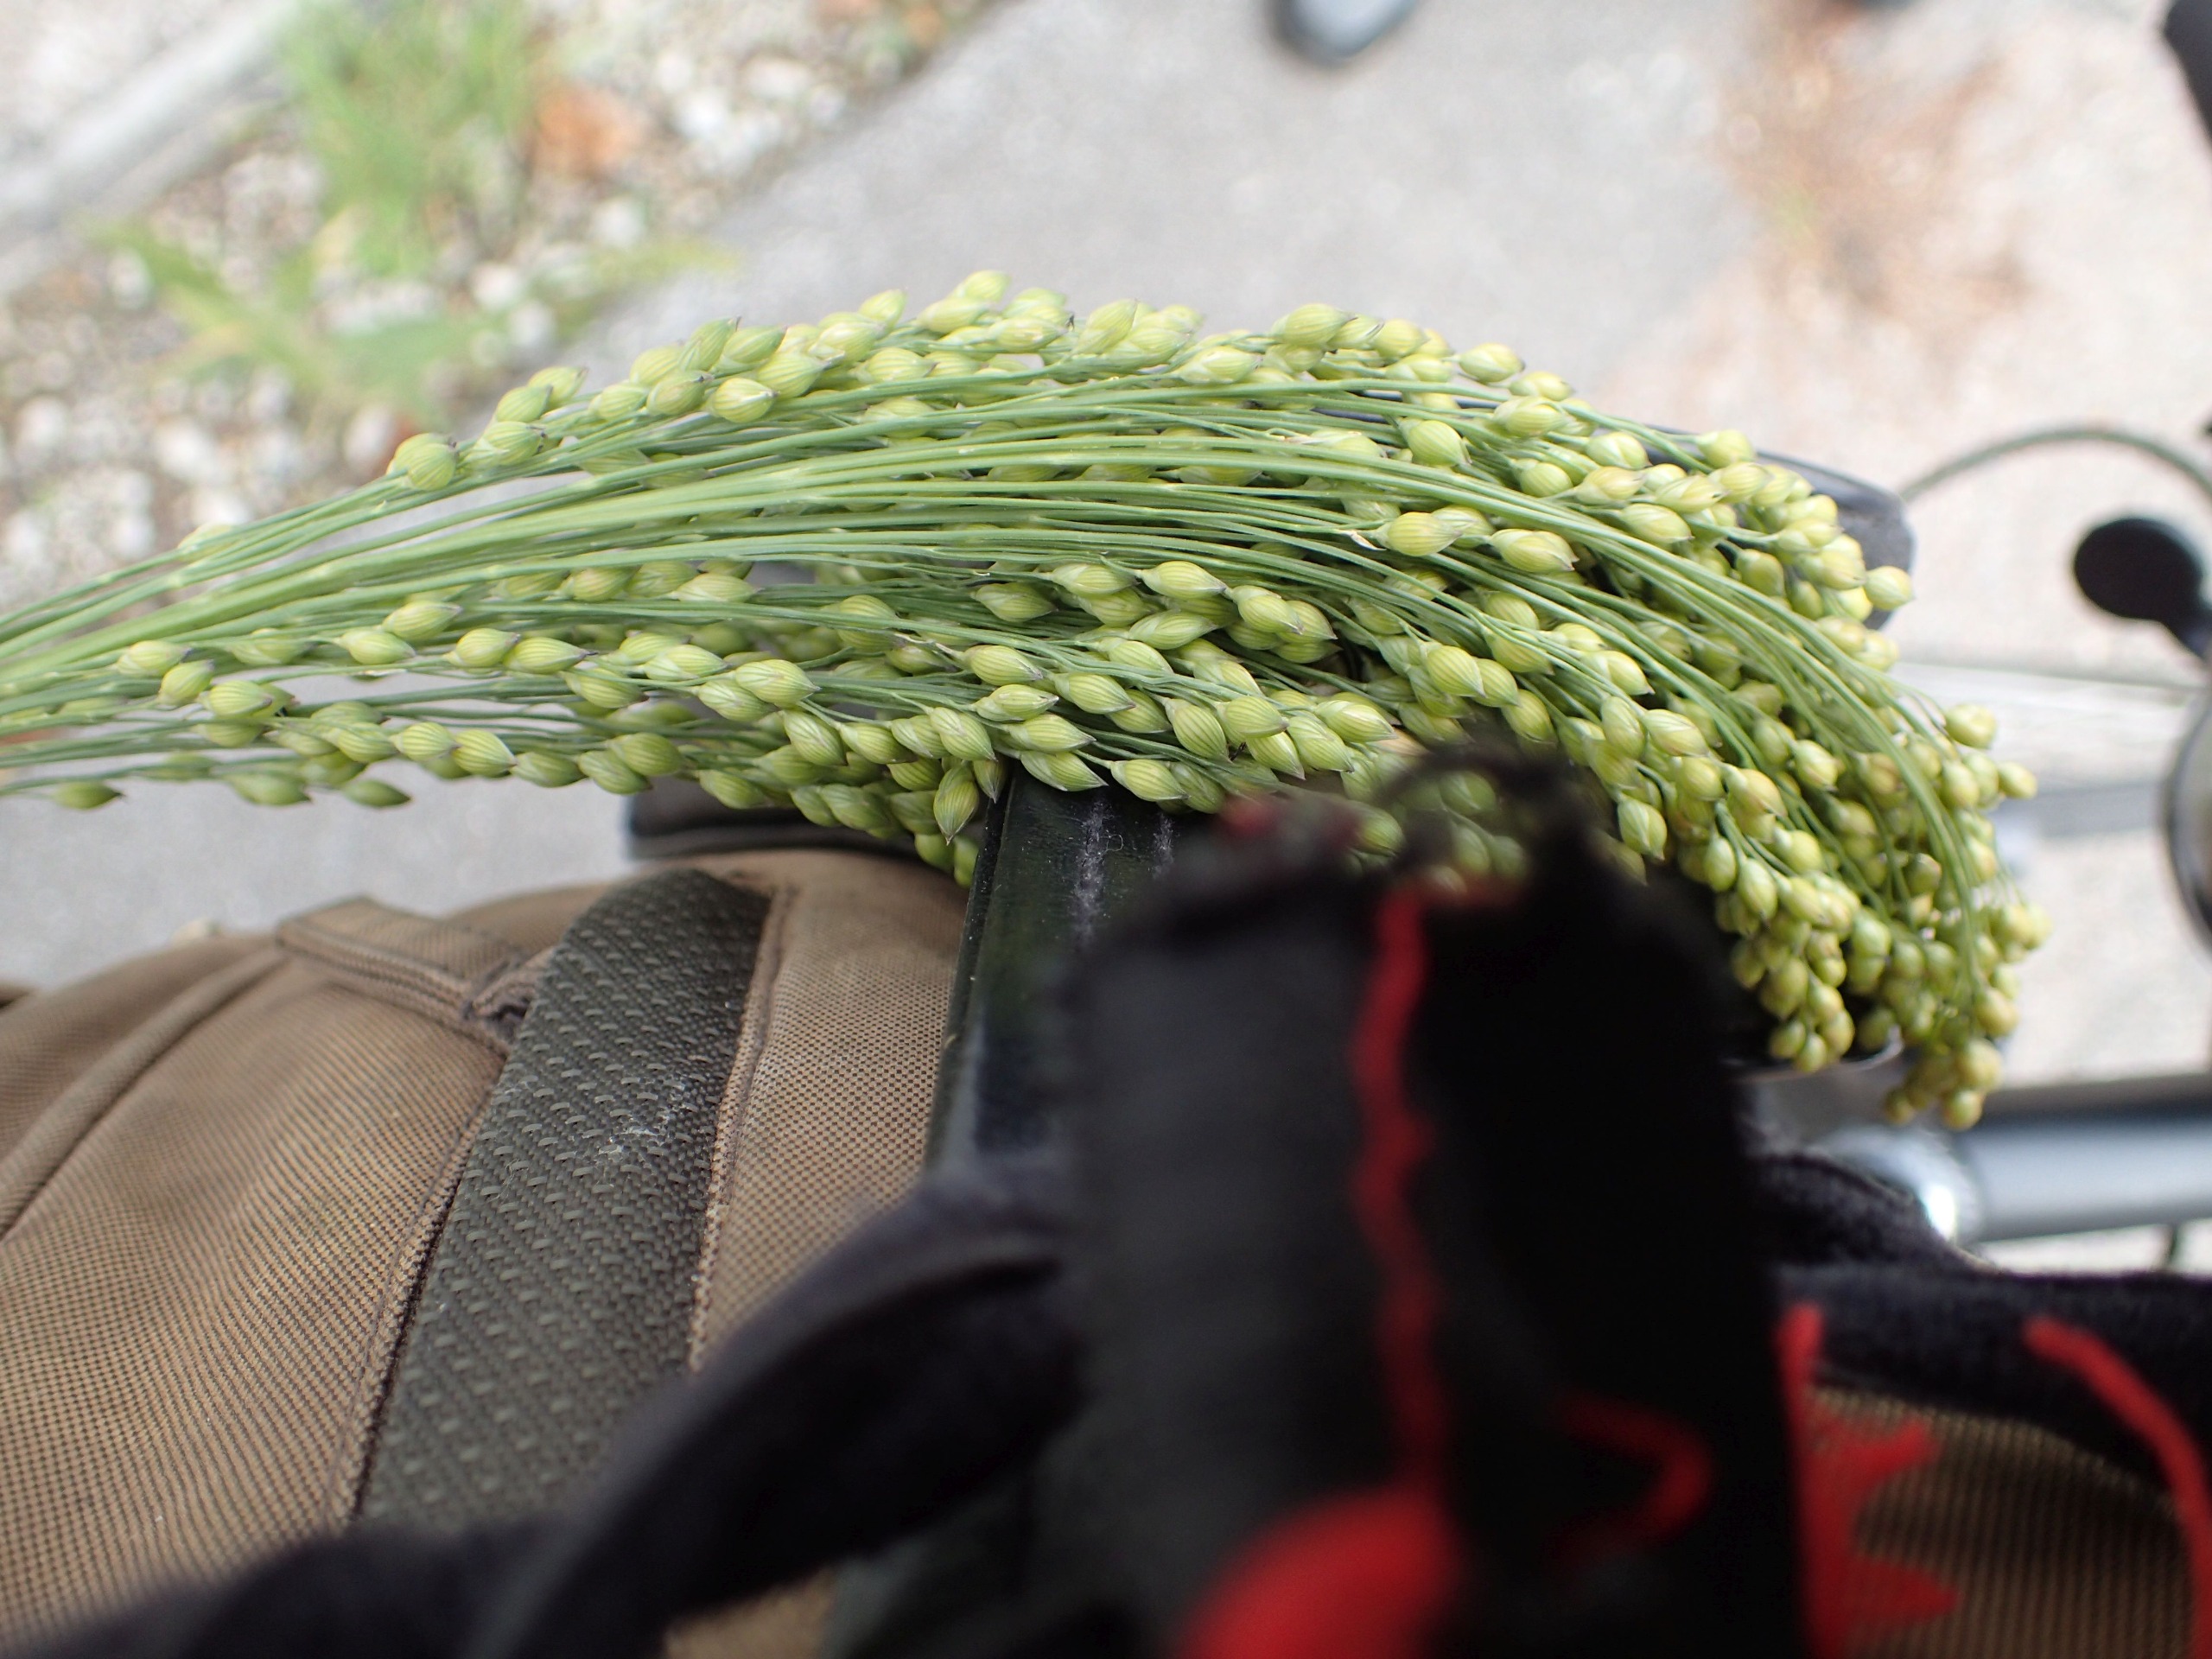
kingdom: Plantae
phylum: Tracheophyta
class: Liliopsida
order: Poales
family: Poaceae
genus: Panicum
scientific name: Panicum miliaceum
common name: Almindelig hirse
